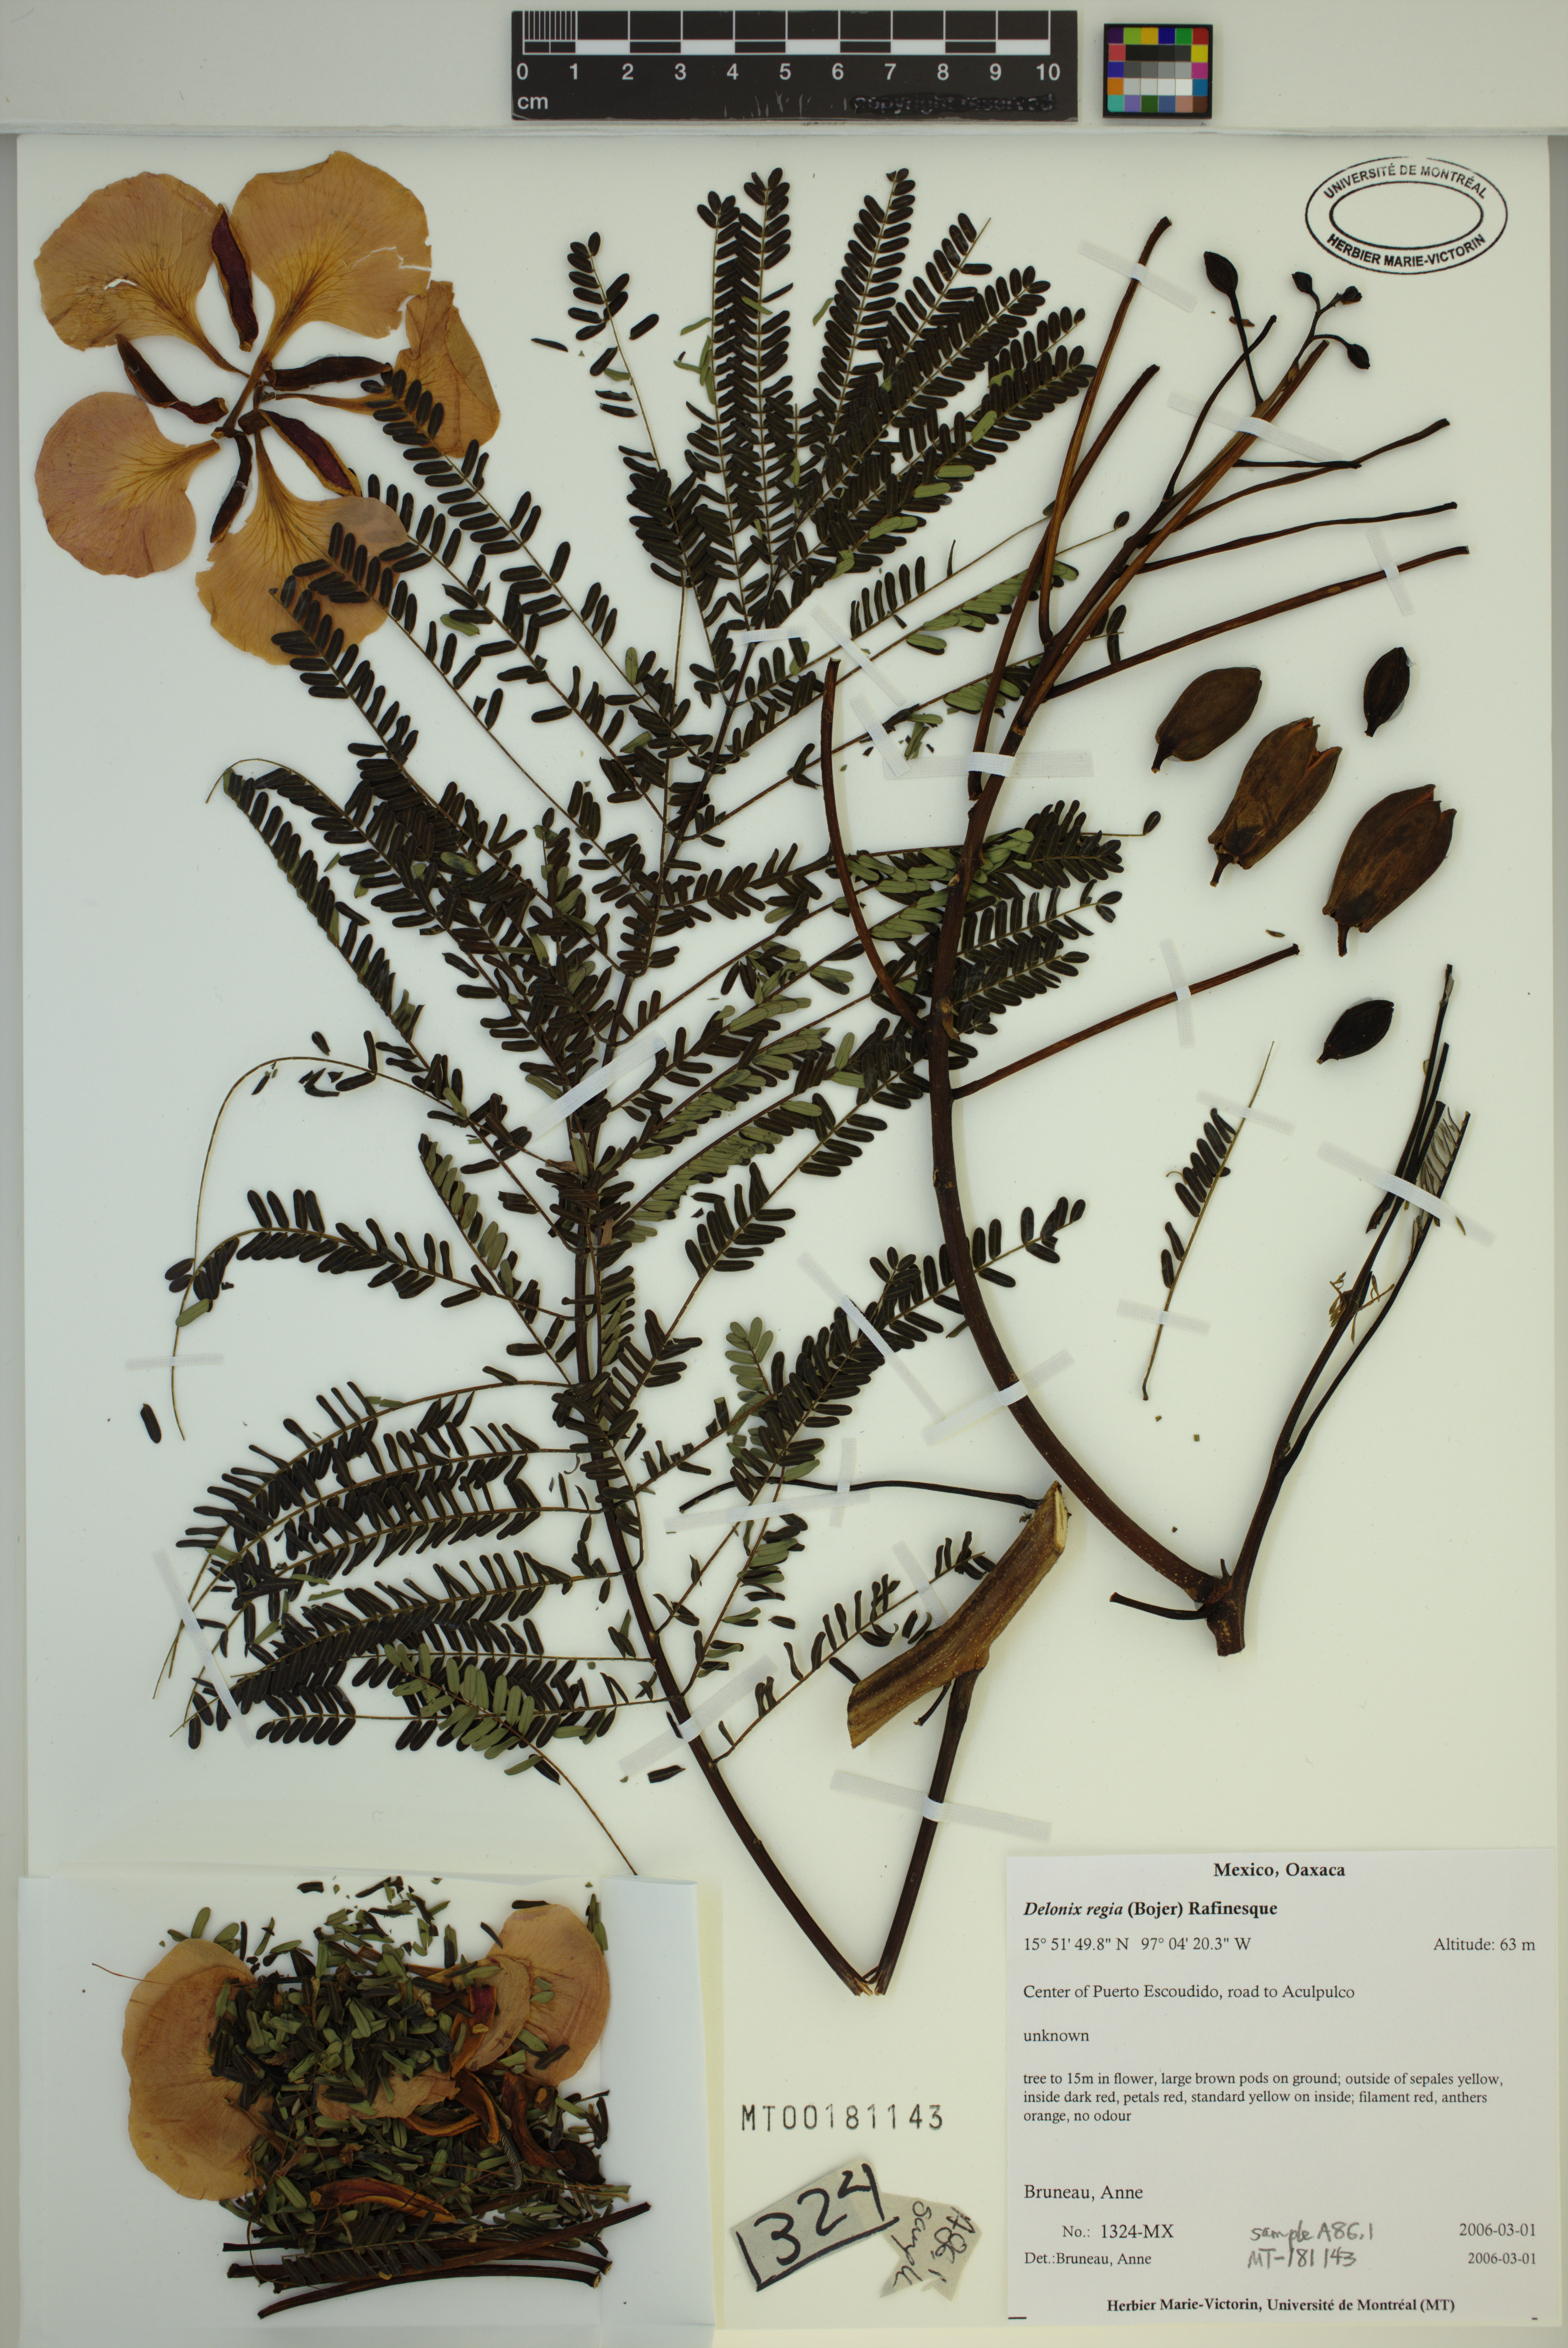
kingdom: Plantae
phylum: Tracheophyta
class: Magnoliopsida
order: Fabales
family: Fabaceae
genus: Delonix
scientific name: Delonix regia
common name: Royal poinciana
